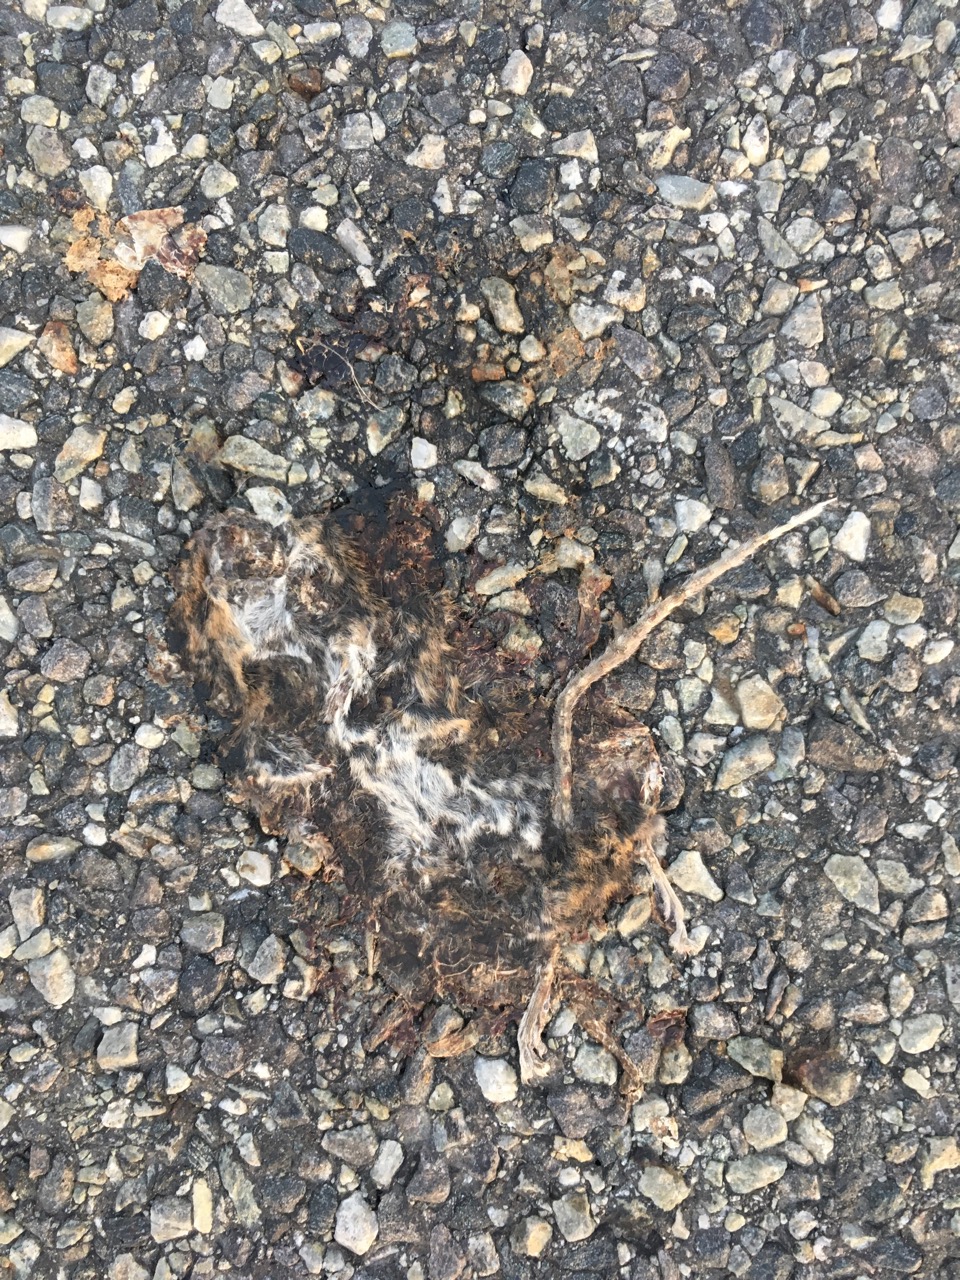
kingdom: Animalia
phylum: Chordata
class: Mammalia
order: Rodentia
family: Muridae
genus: Apodemus
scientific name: Apodemus
